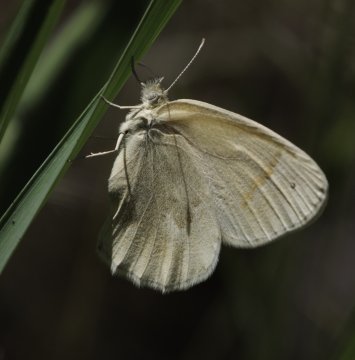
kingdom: Animalia
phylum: Arthropoda
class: Insecta
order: Lepidoptera
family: Nymphalidae
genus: Coenonympha
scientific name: Coenonympha tullia
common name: Large Heath
